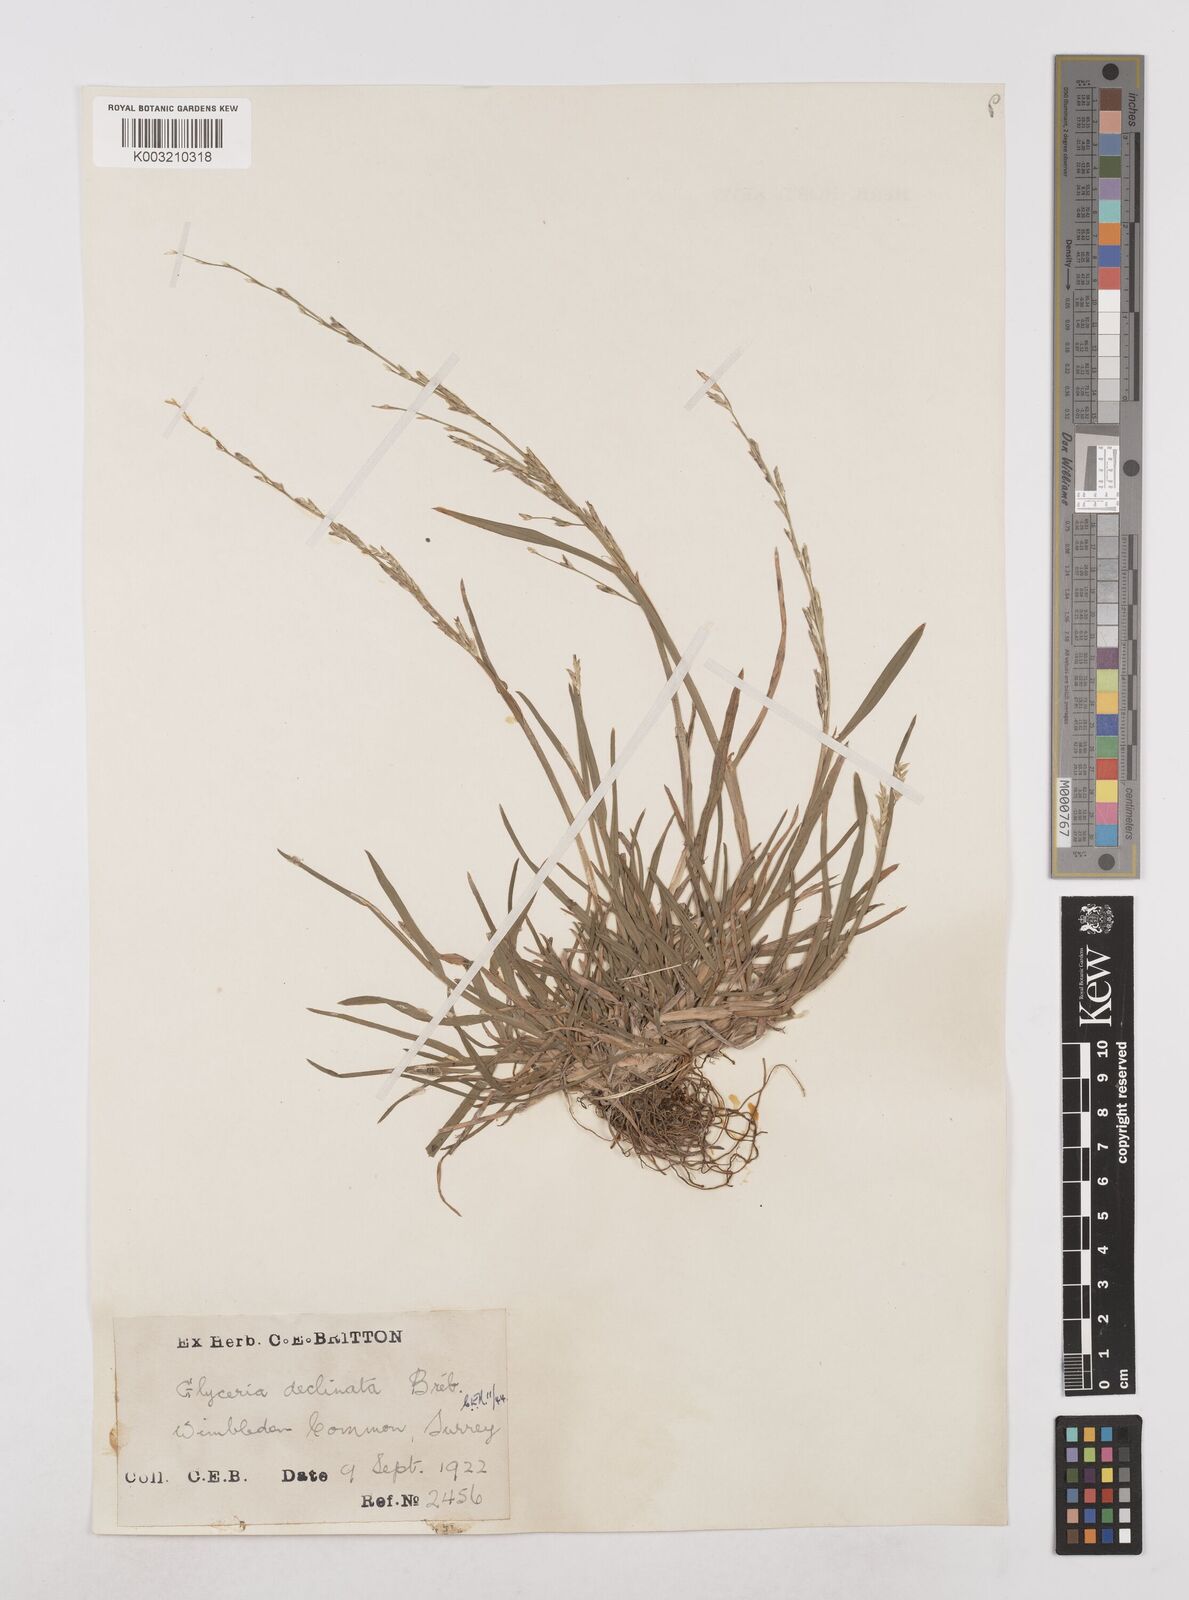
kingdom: Plantae
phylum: Tracheophyta
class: Liliopsida
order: Poales
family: Poaceae
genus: Glyceria
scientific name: Glyceria declinata
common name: Small sweet-grass
